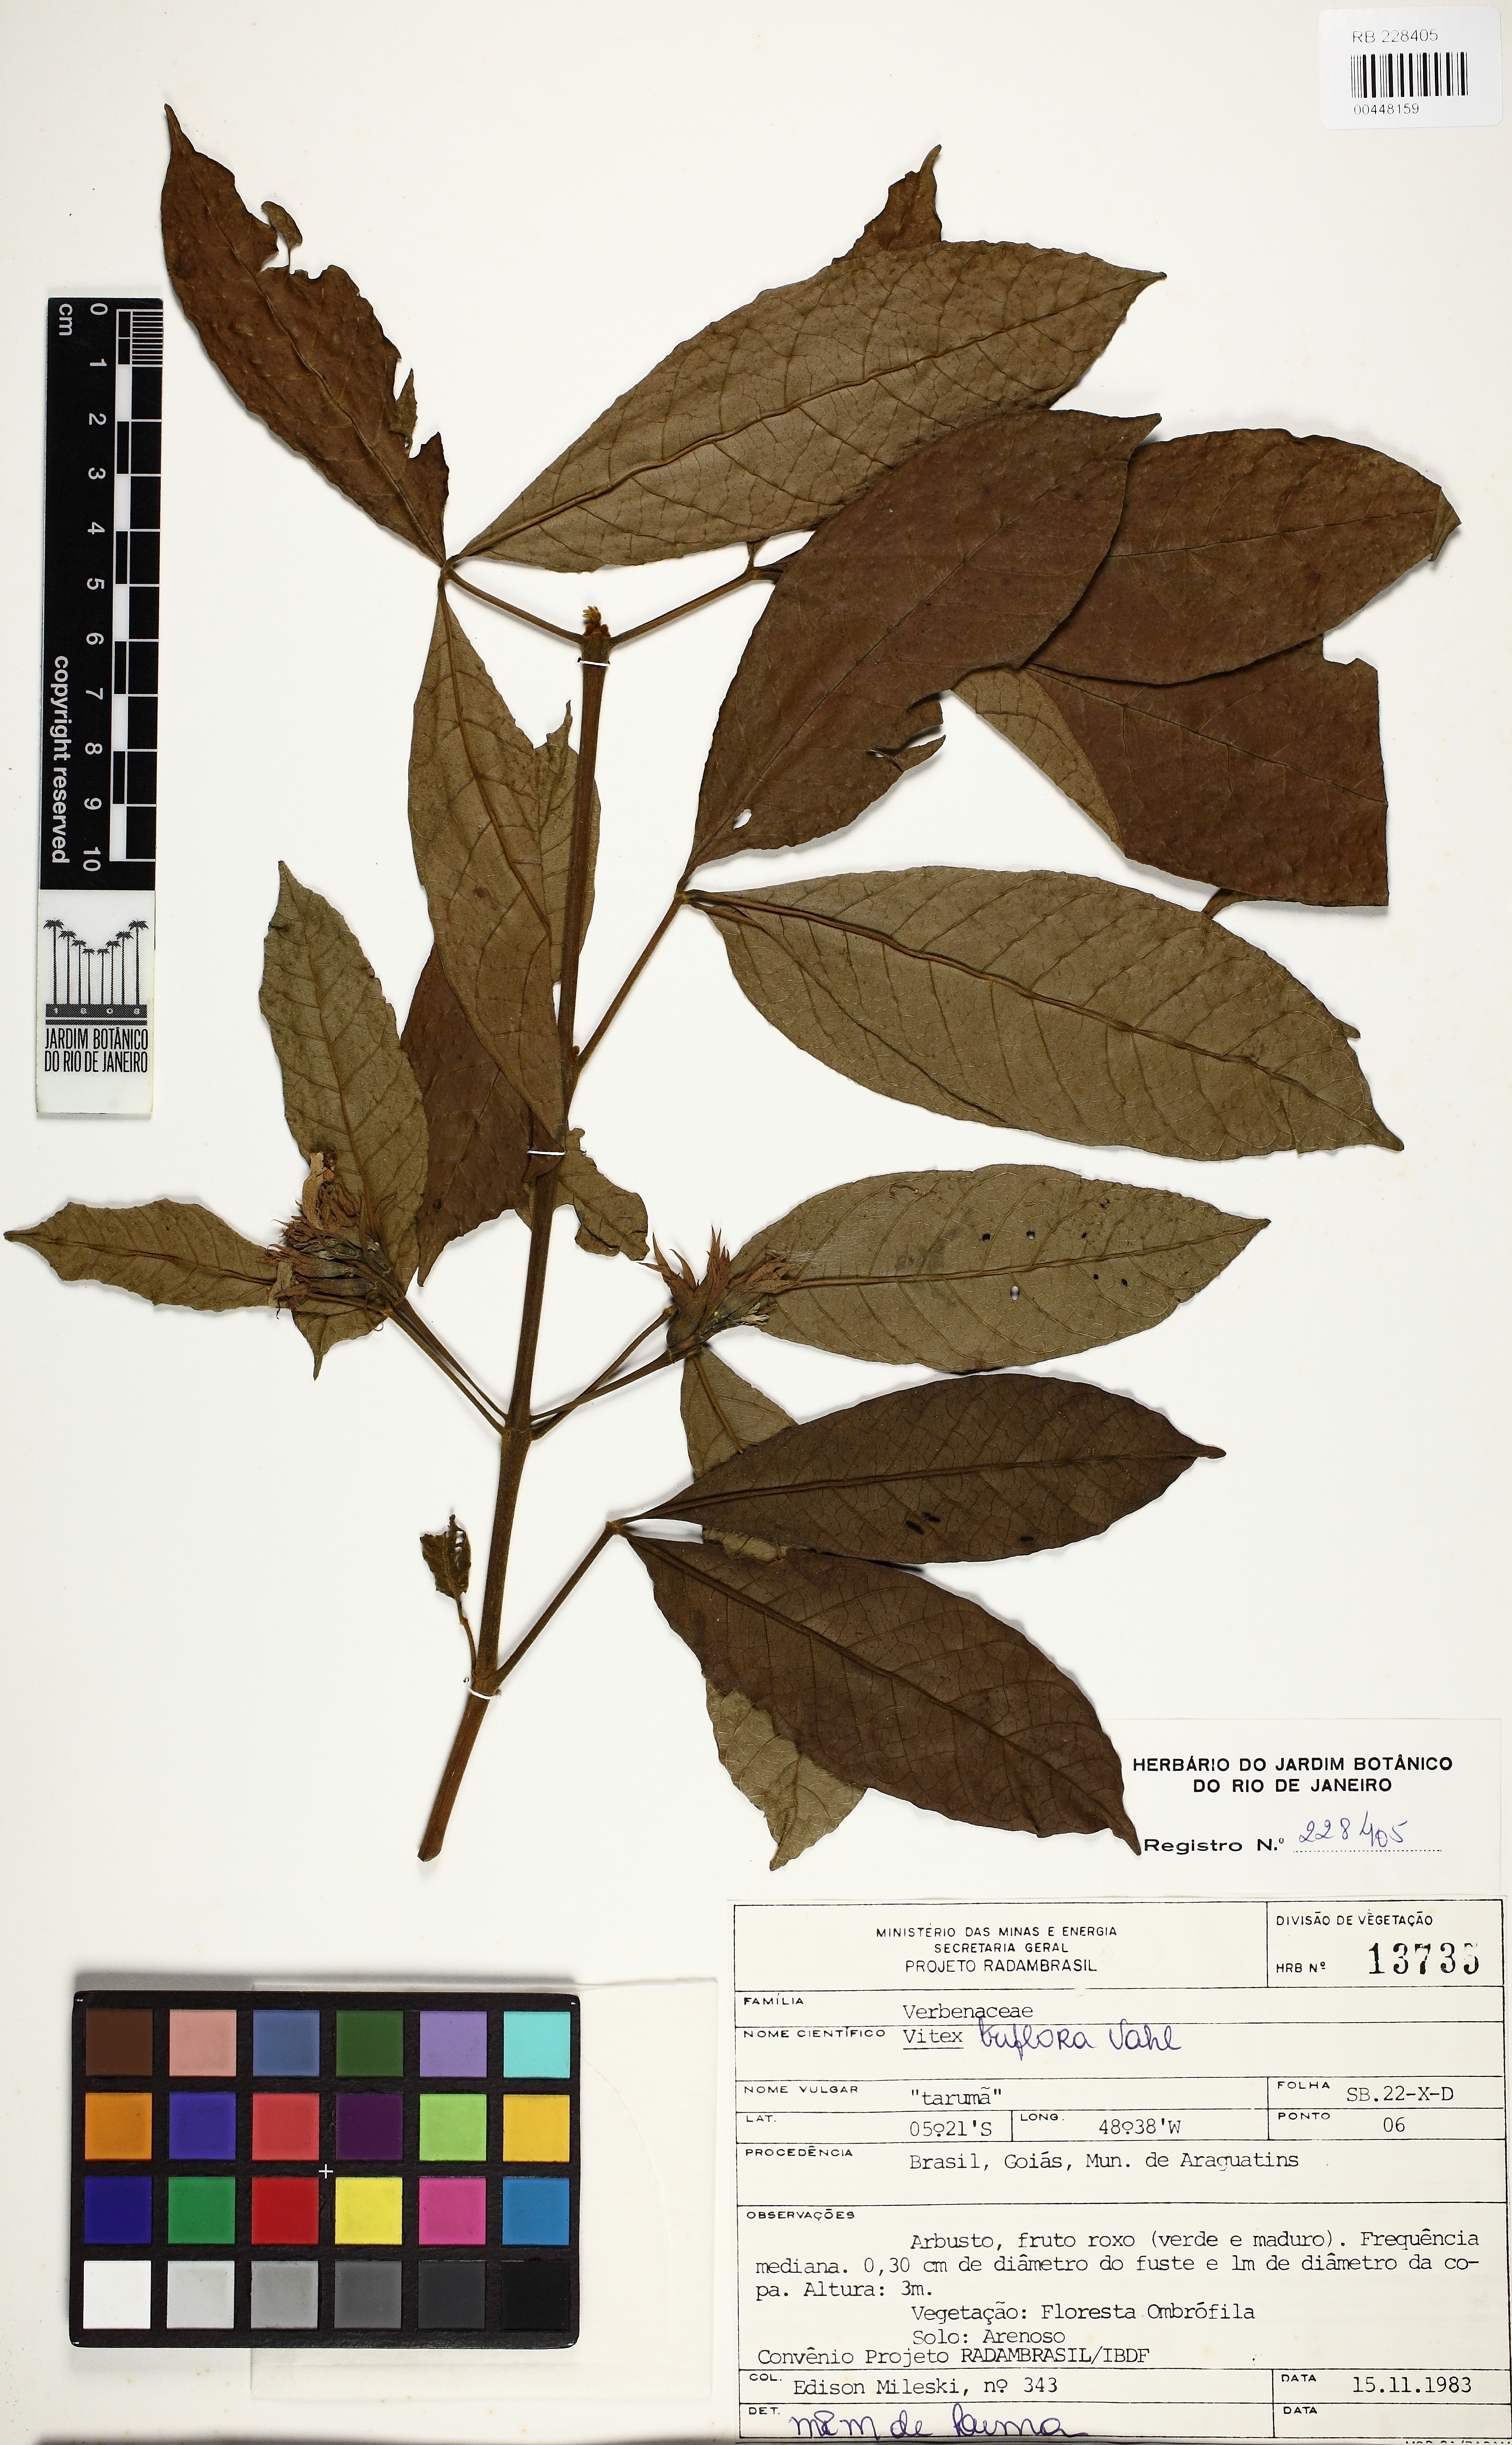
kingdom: Plantae
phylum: Tracheophyta
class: Magnoliopsida
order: Lamiales
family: Lamiaceae
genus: Vitex
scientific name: Vitex triflora
